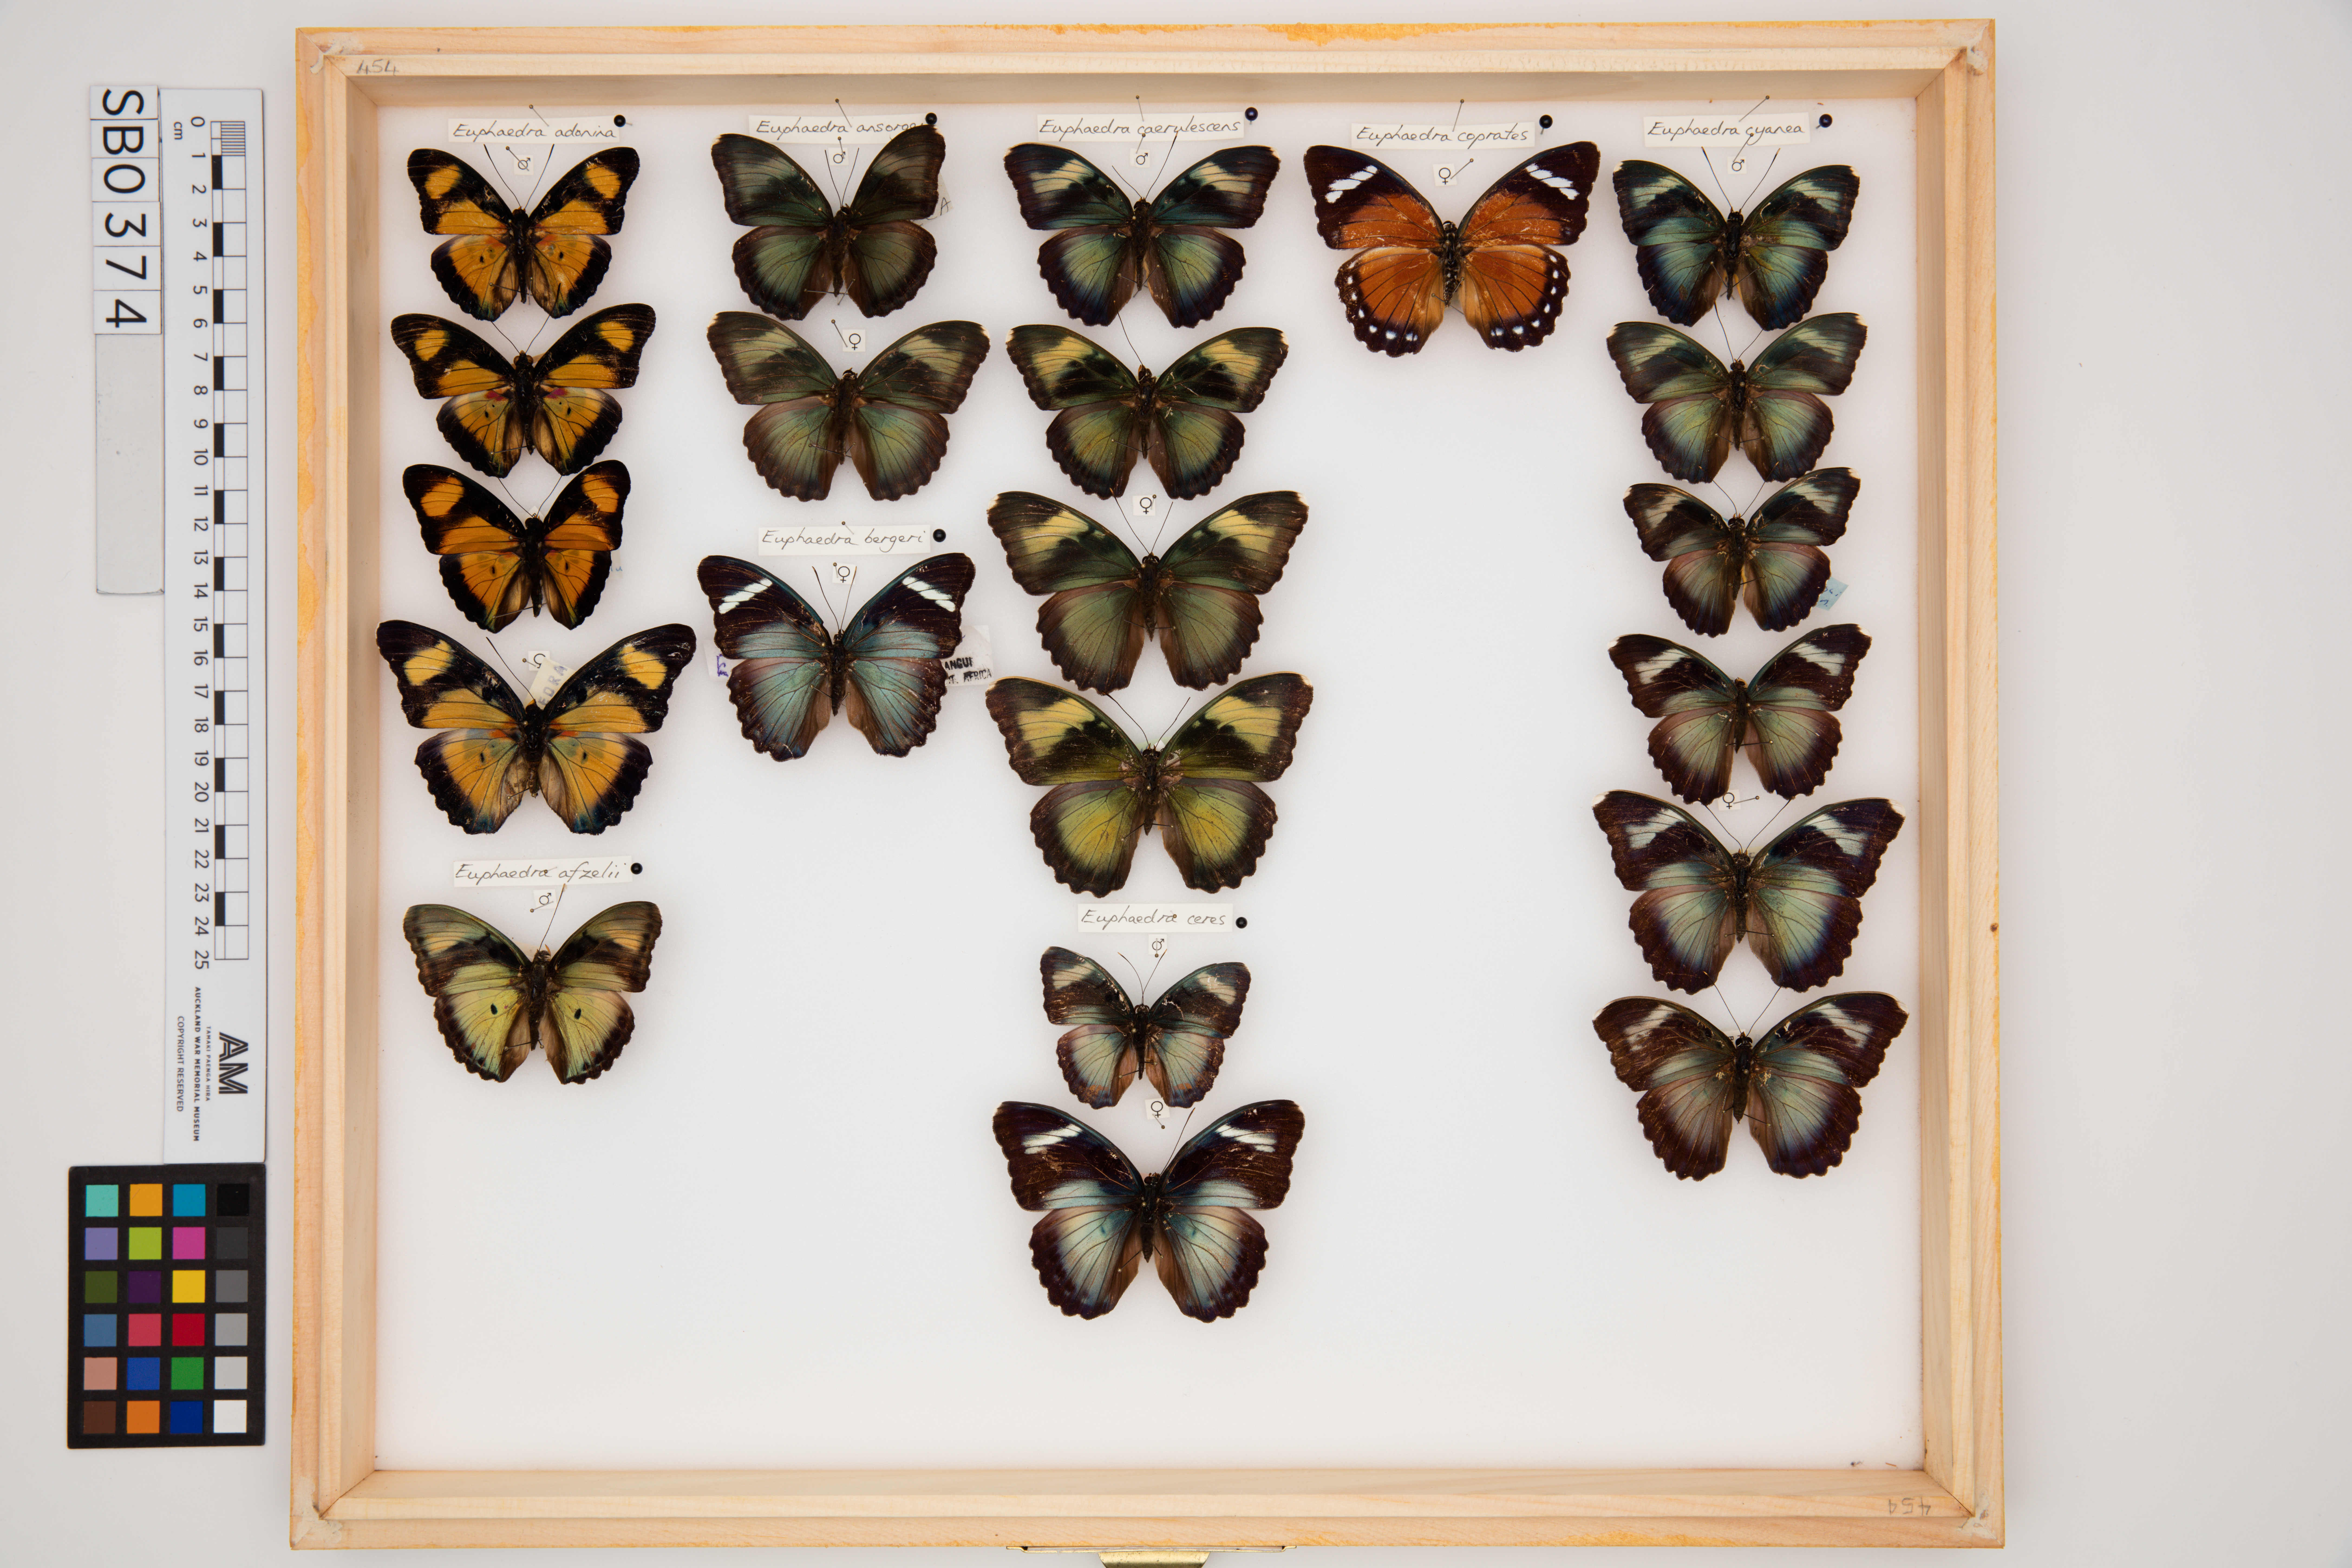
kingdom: Animalia
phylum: Arthropoda
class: Insecta
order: Lepidoptera
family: Nymphalidae
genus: Euphaedra
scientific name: Euphaedra caerulescens
